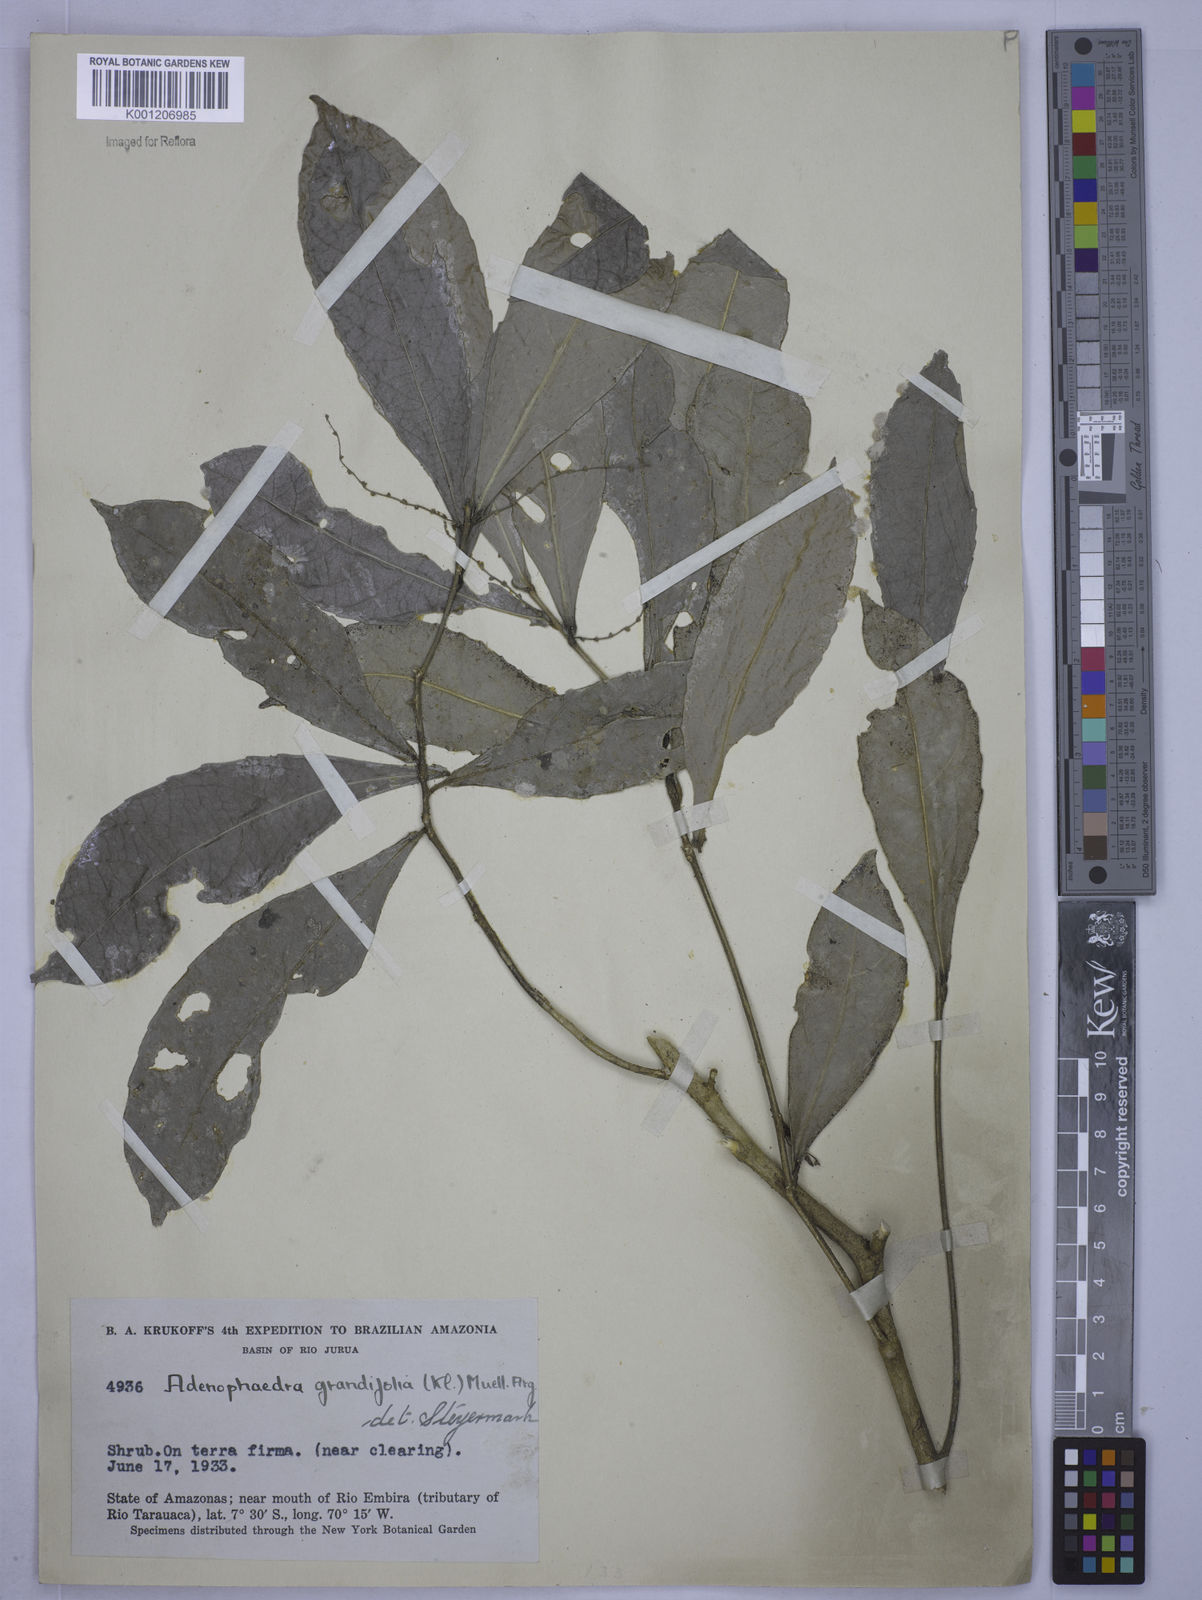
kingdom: Plantae
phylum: Tracheophyta
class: Magnoliopsida
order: Malpighiales
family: Euphorbiaceae
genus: Adenophaedra
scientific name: Adenophaedra
